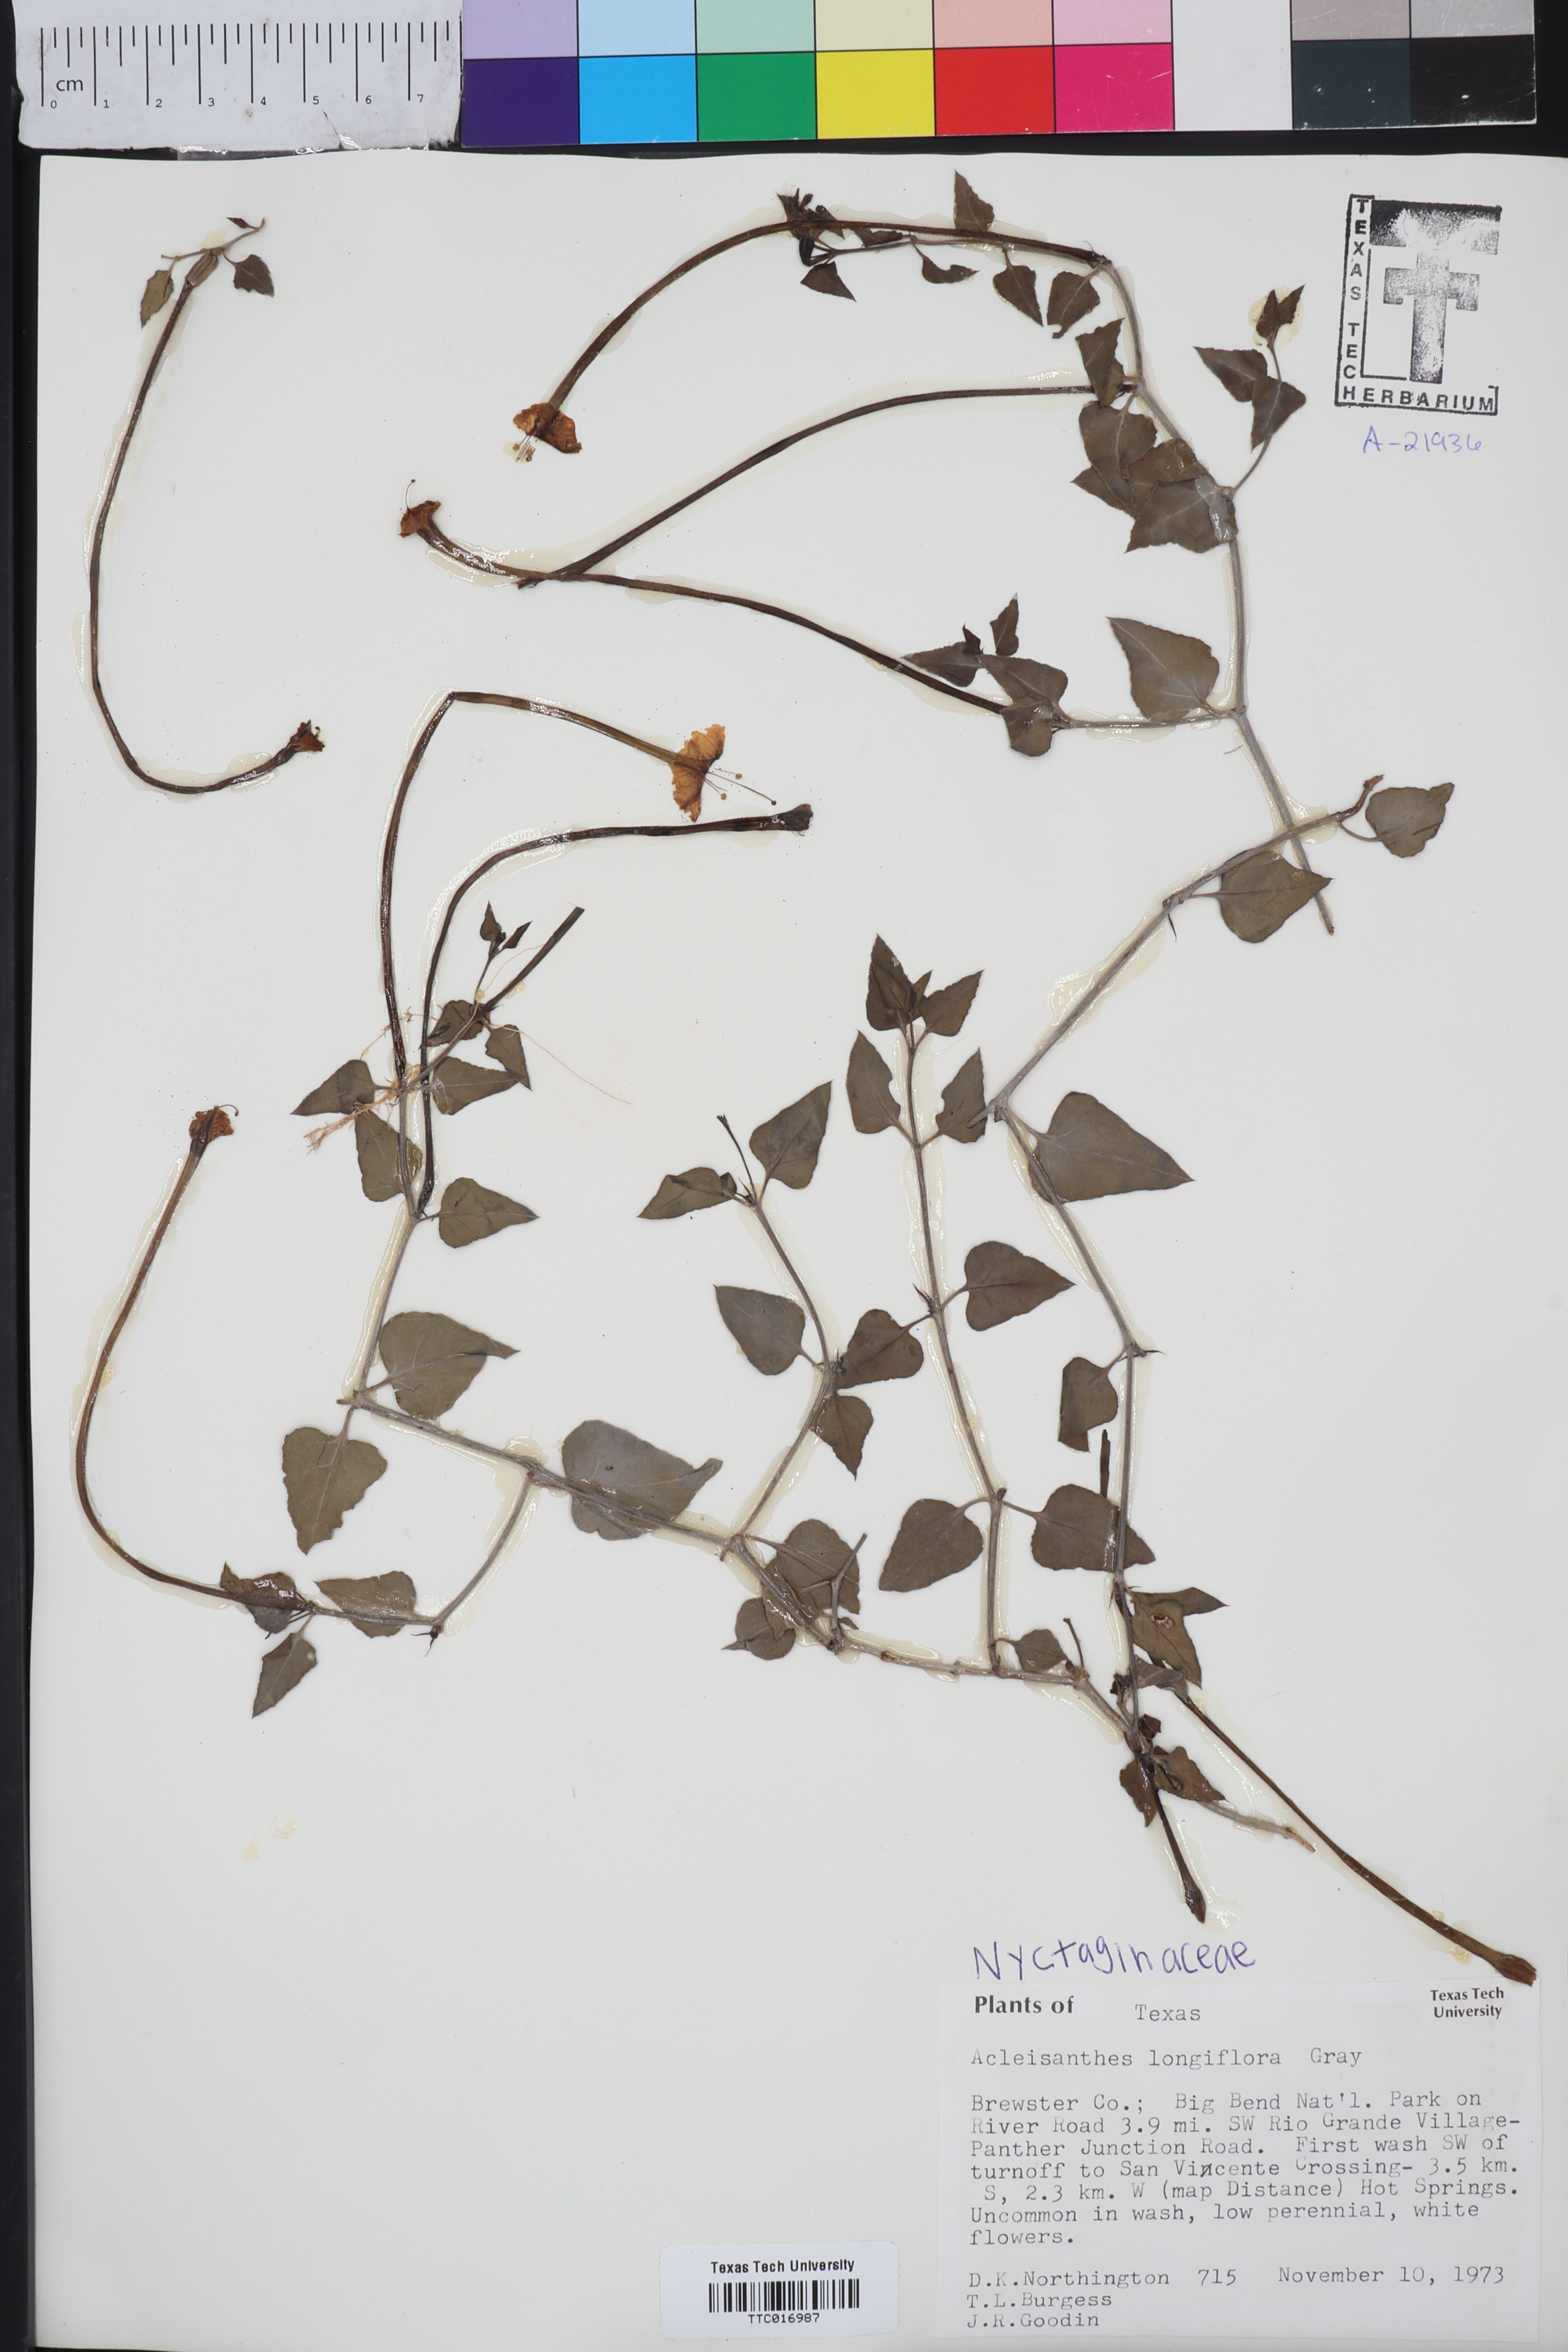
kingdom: Plantae
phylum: Tracheophyta
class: Magnoliopsida
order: Caryophyllales
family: Nyctaginaceae
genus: Acleisanthes
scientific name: Acleisanthes longiflora
